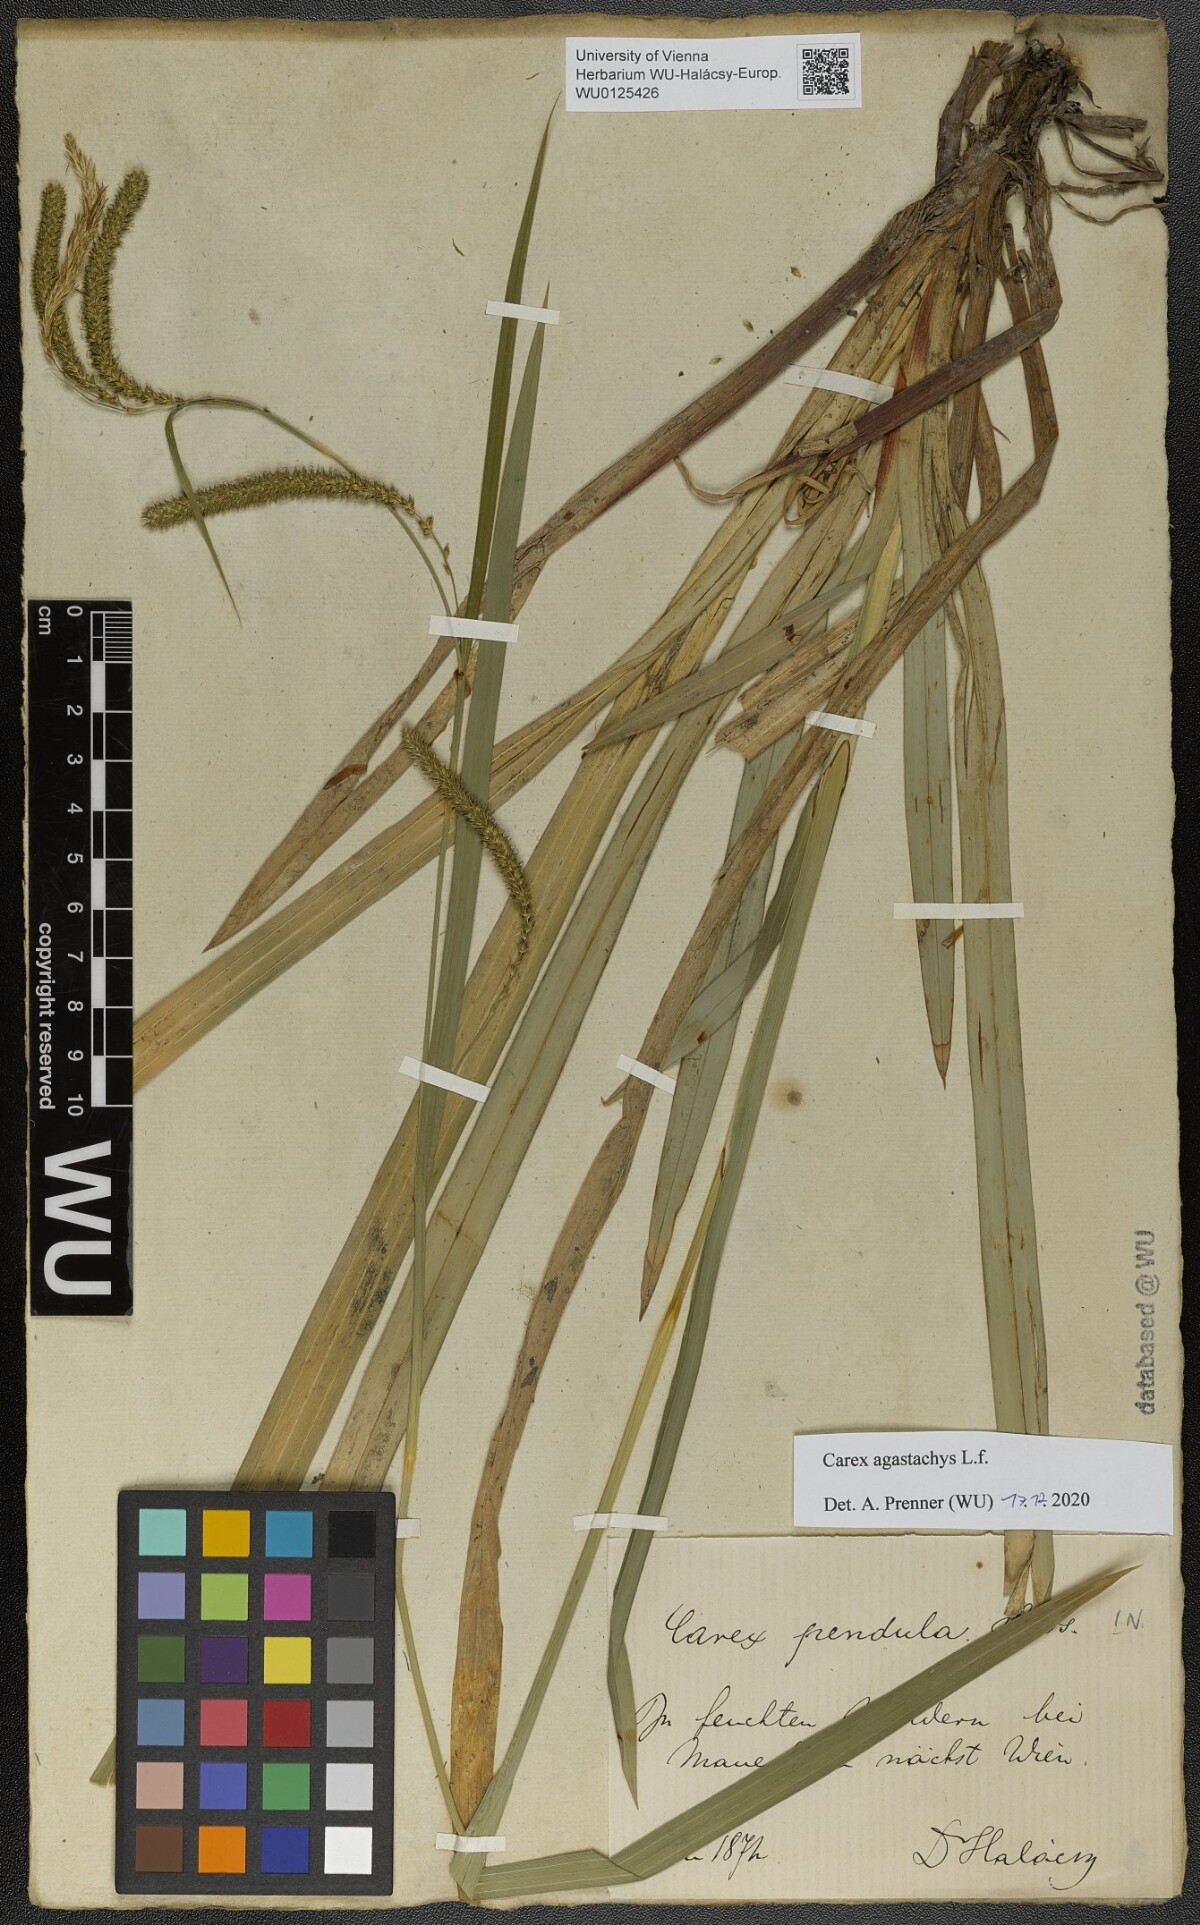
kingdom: Plantae
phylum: Tracheophyta
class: Liliopsida
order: Poales
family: Cyperaceae
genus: Carex
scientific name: Carex agastachys
